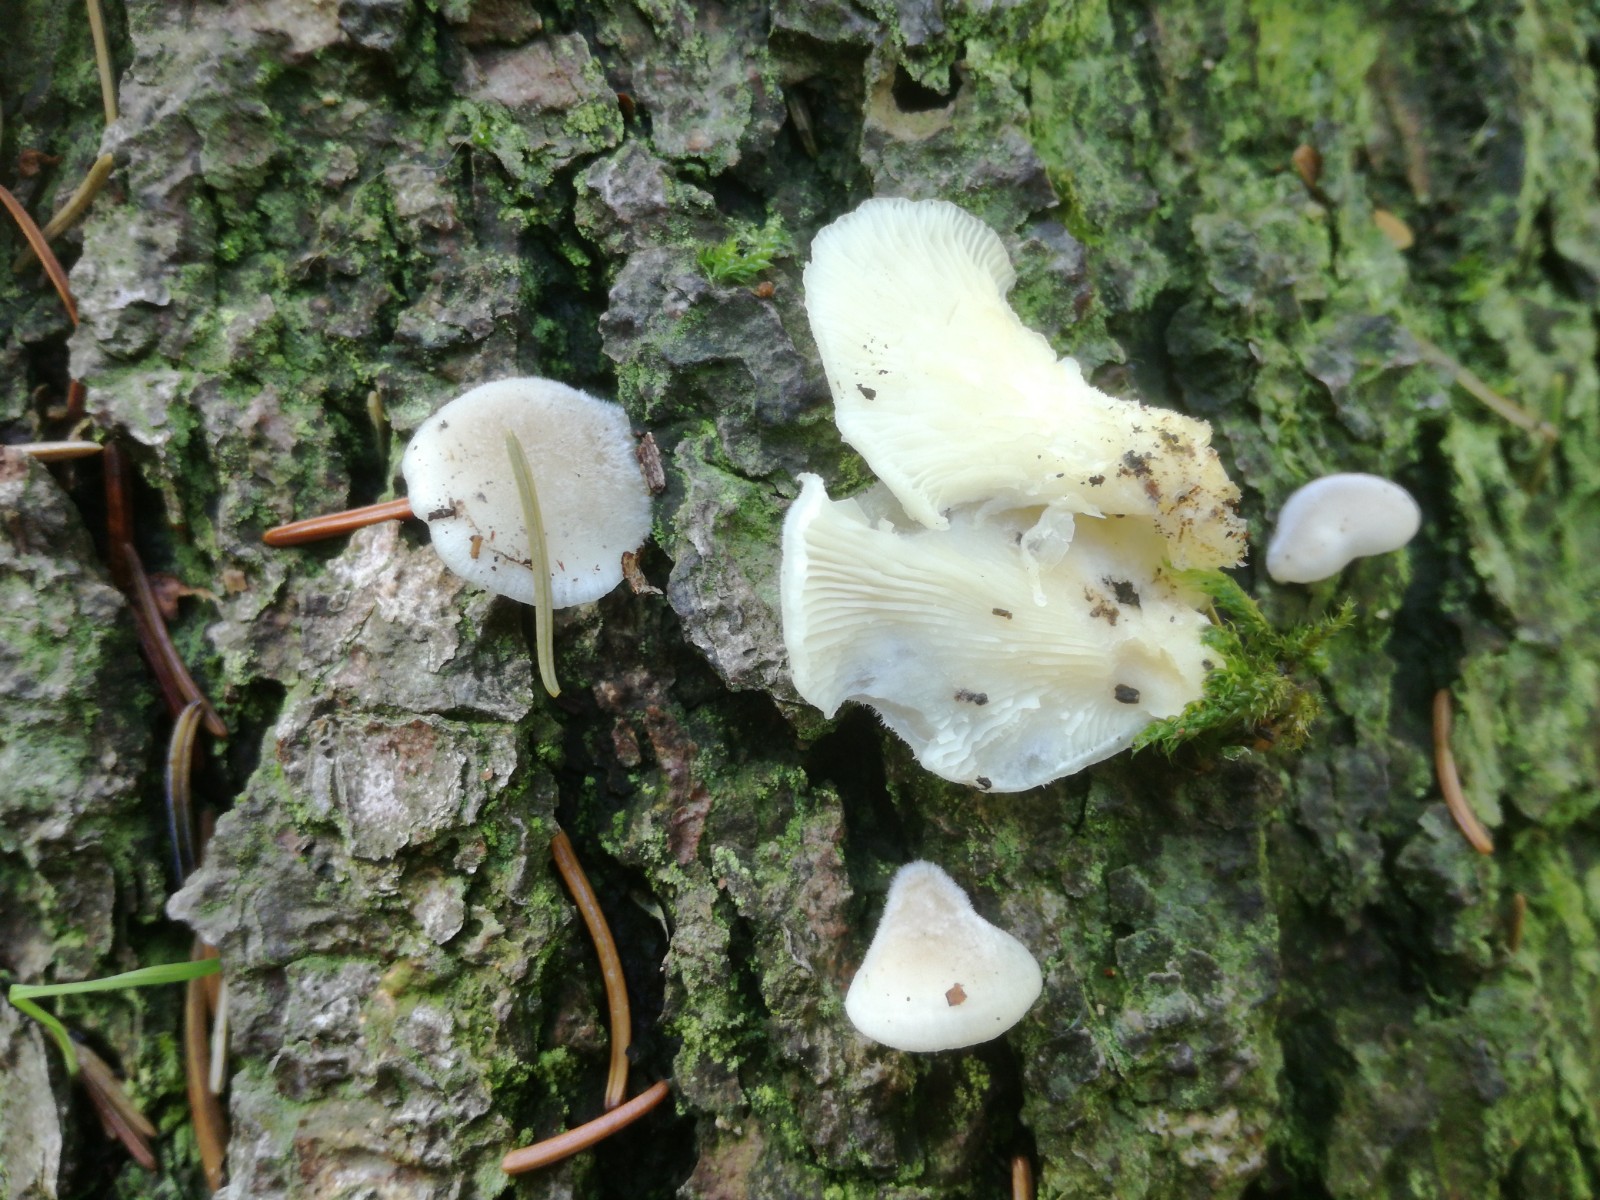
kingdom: Fungi
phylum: Basidiomycota
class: Agaricomycetes
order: Agaricales
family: Pleurotaceae
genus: Hohenbuehelia
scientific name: Hohenbuehelia horakii
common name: grå filthat
